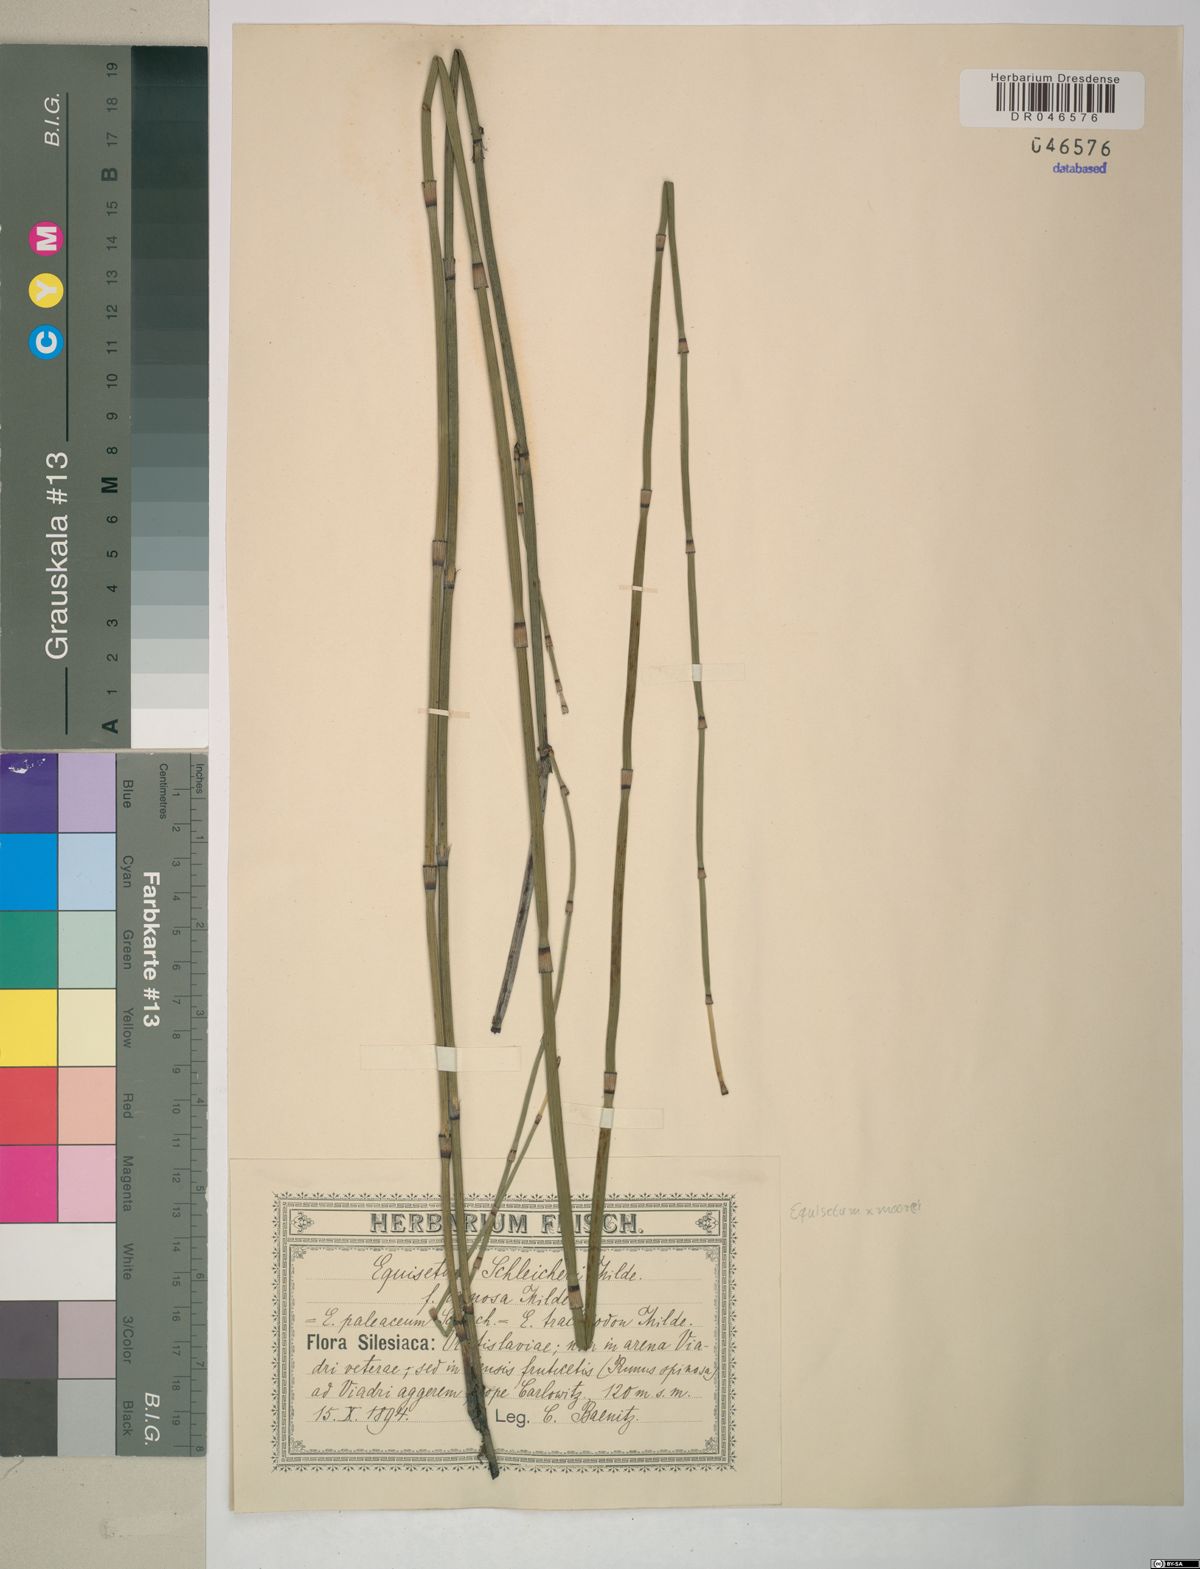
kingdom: Plantae
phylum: Tracheophyta
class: Polypodiopsida
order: Equisetales
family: Equisetaceae
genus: Equisetum
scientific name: Equisetum moorei
